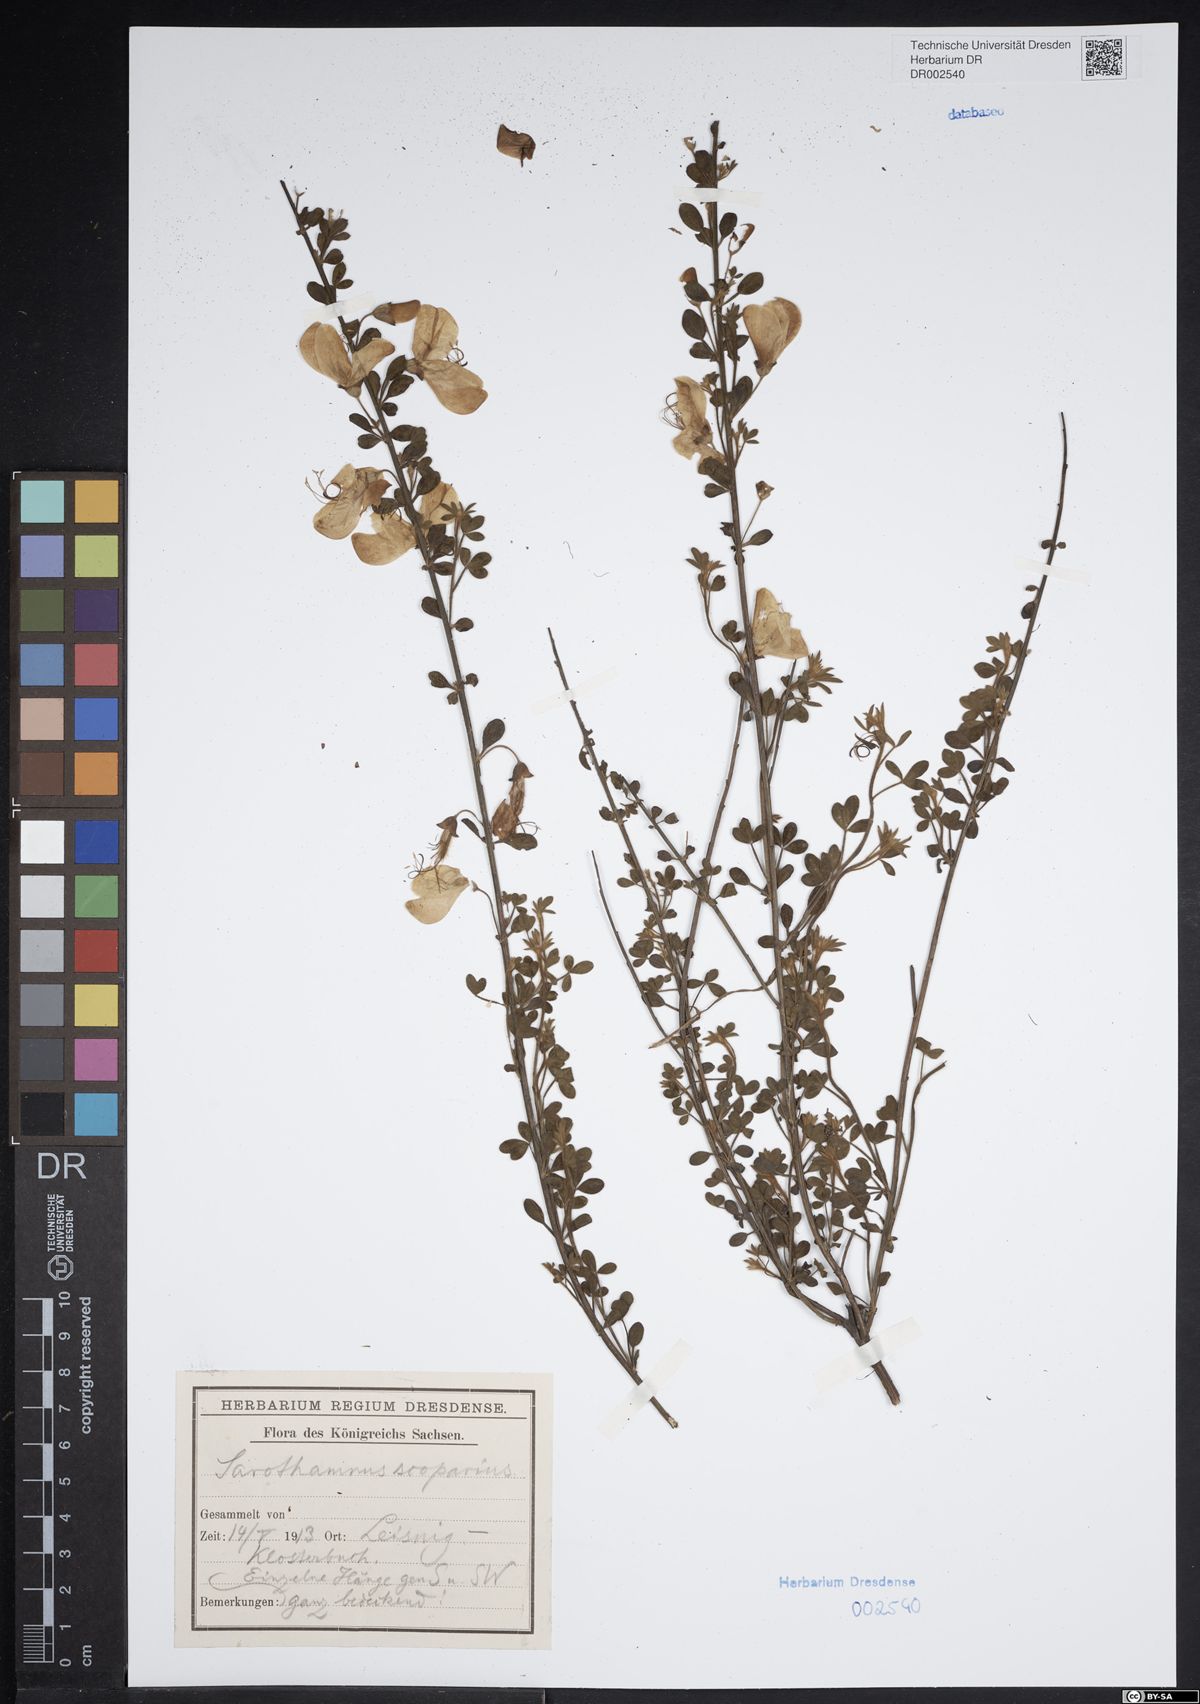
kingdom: Plantae
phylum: Tracheophyta
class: Magnoliopsida
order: Fabales
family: Fabaceae
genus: Cytisus
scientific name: Cytisus scoparius
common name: Scotch broom
